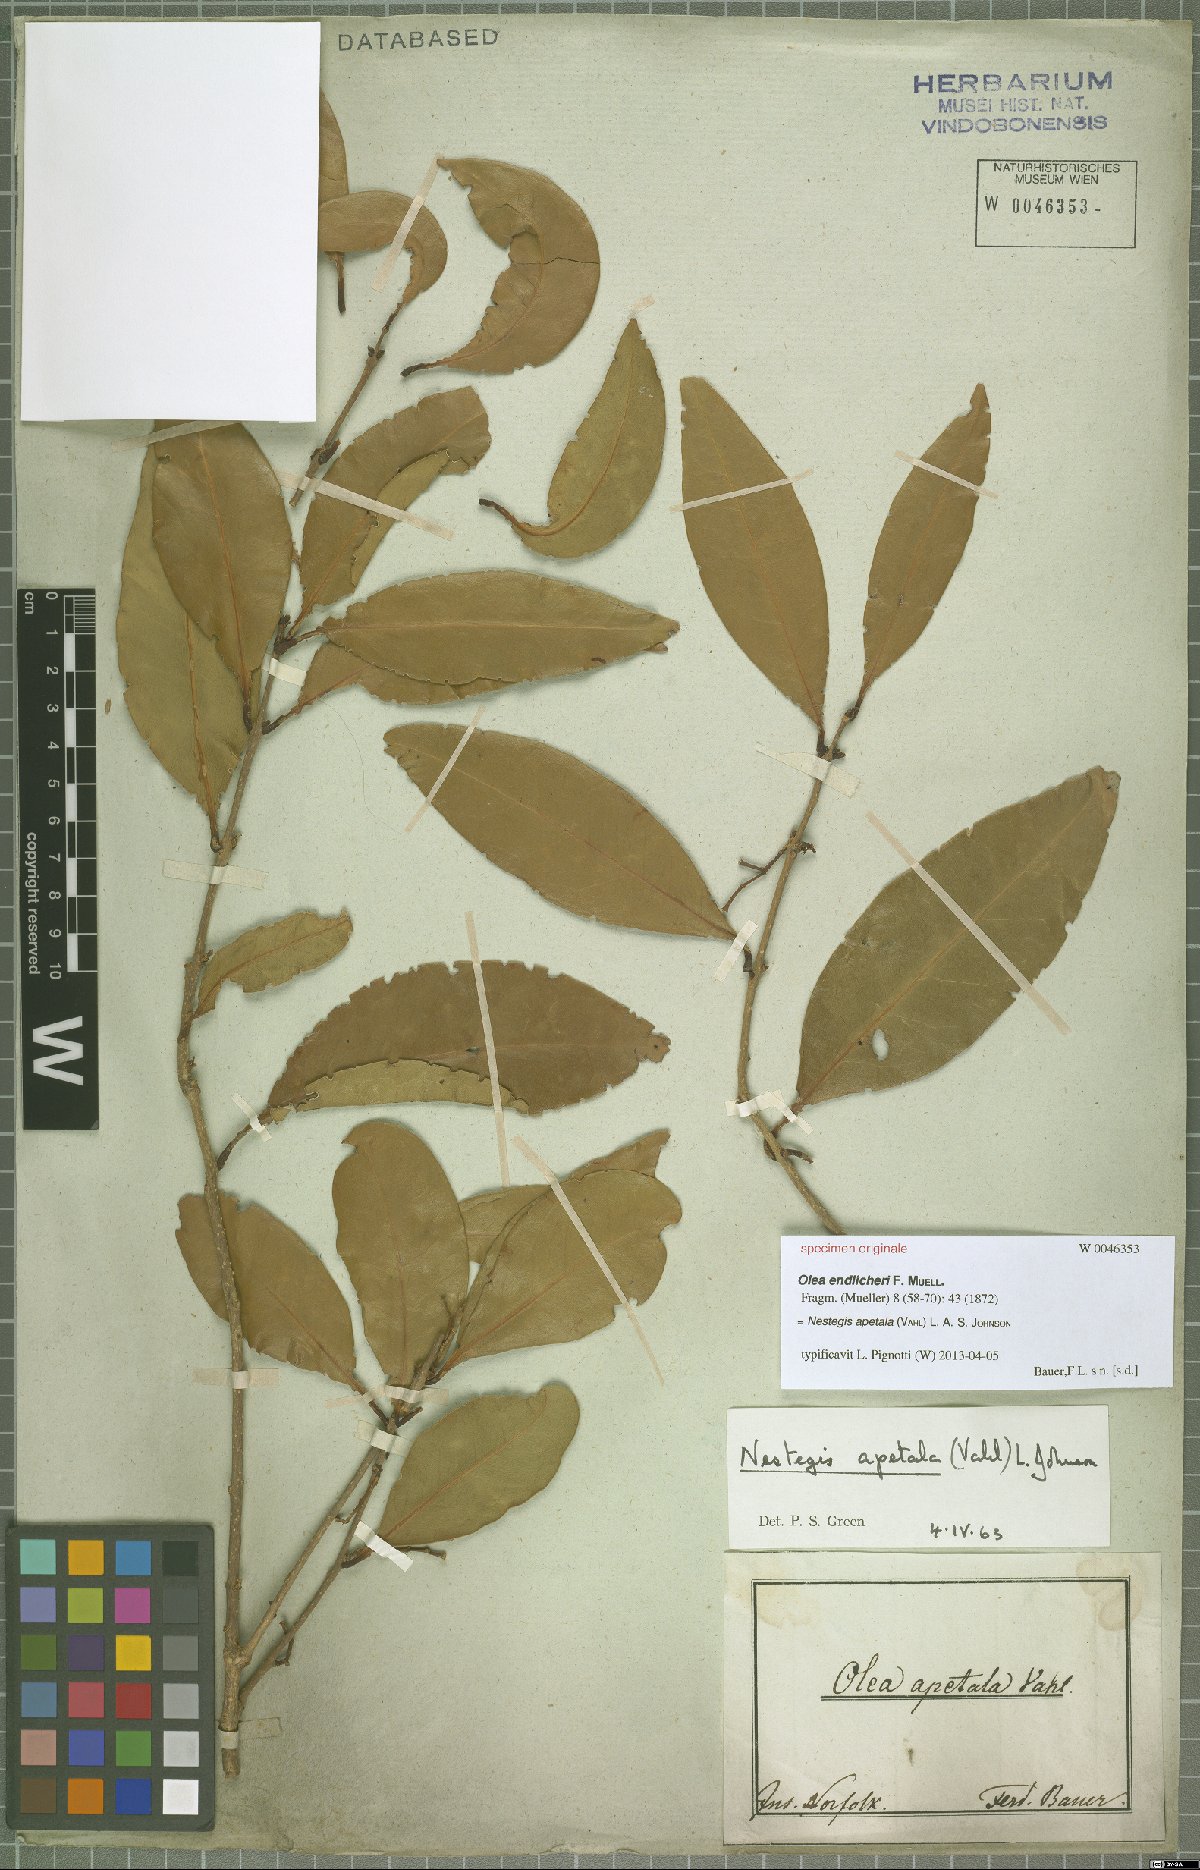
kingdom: Plantae
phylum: Tracheophyta
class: Magnoliopsida
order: Lamiales
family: Oleaceae
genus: Nestegis
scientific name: Nestegis apetala
